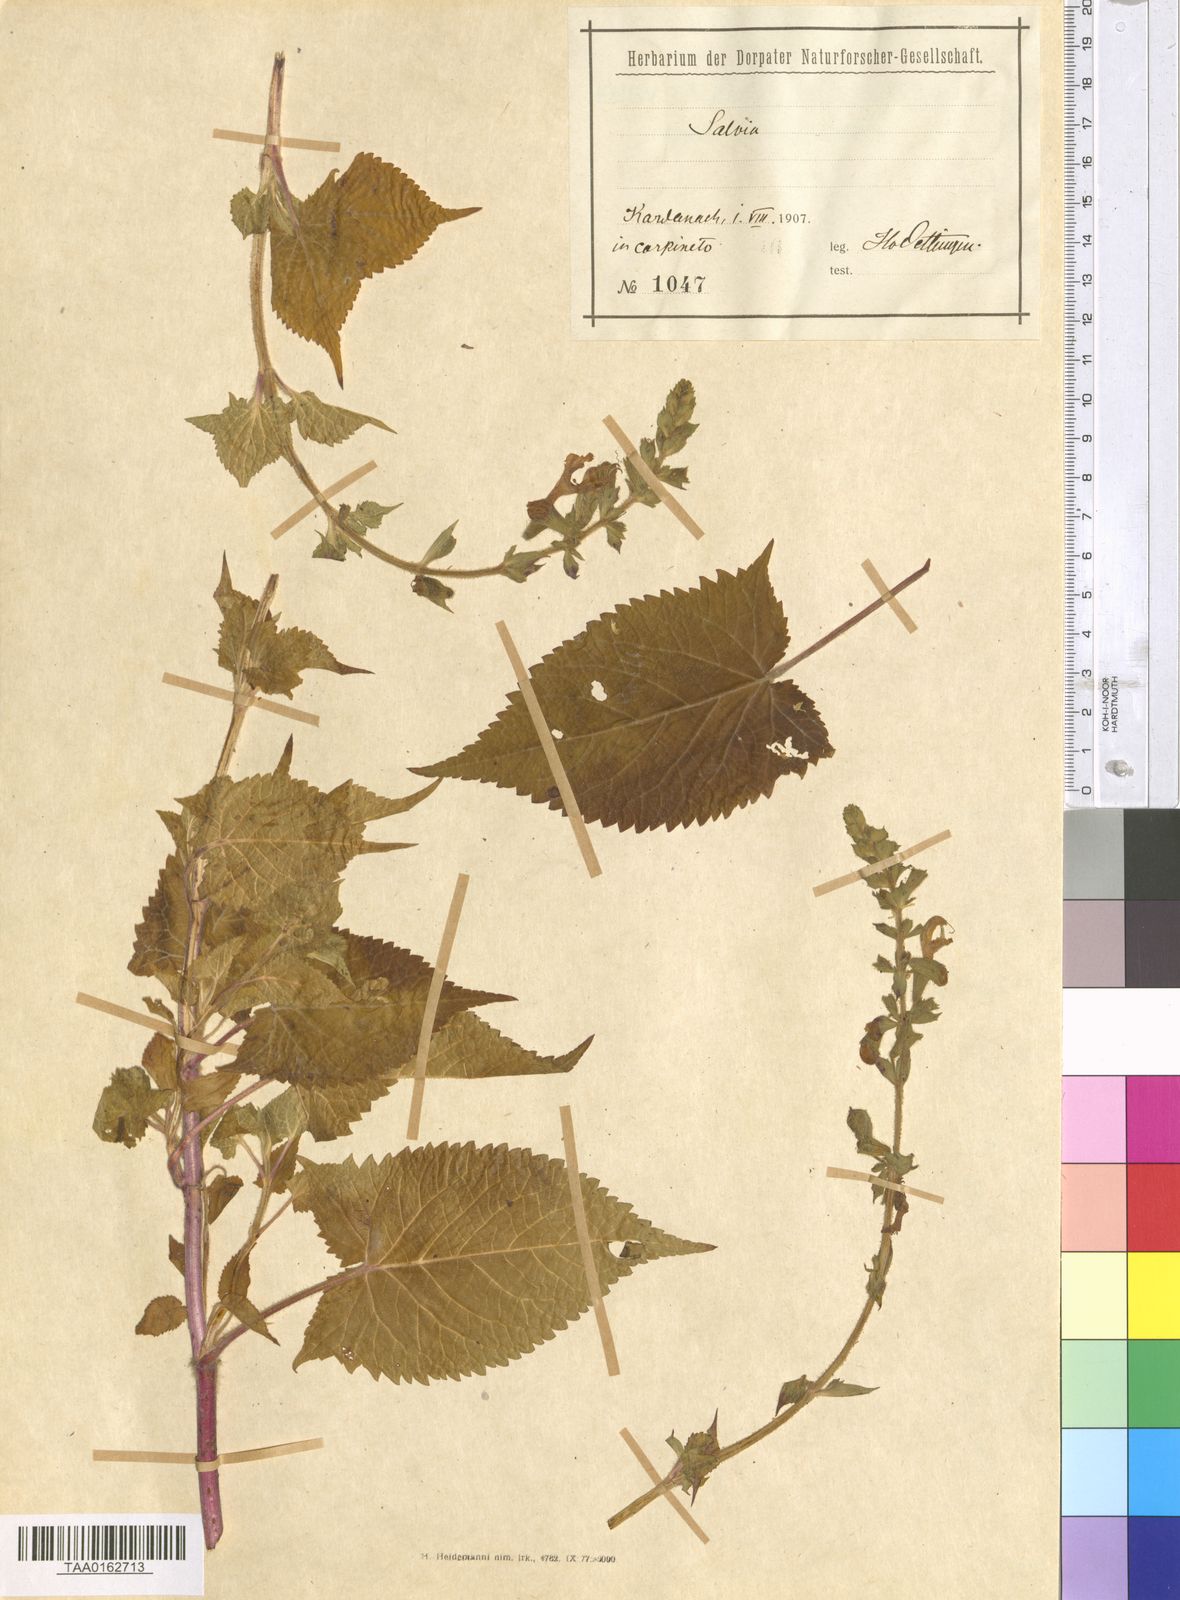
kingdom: Plantae
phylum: Tracheophyta
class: Magnoliopsida
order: Lamiales
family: Lamiaceae
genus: Salvia
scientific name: Salvia
